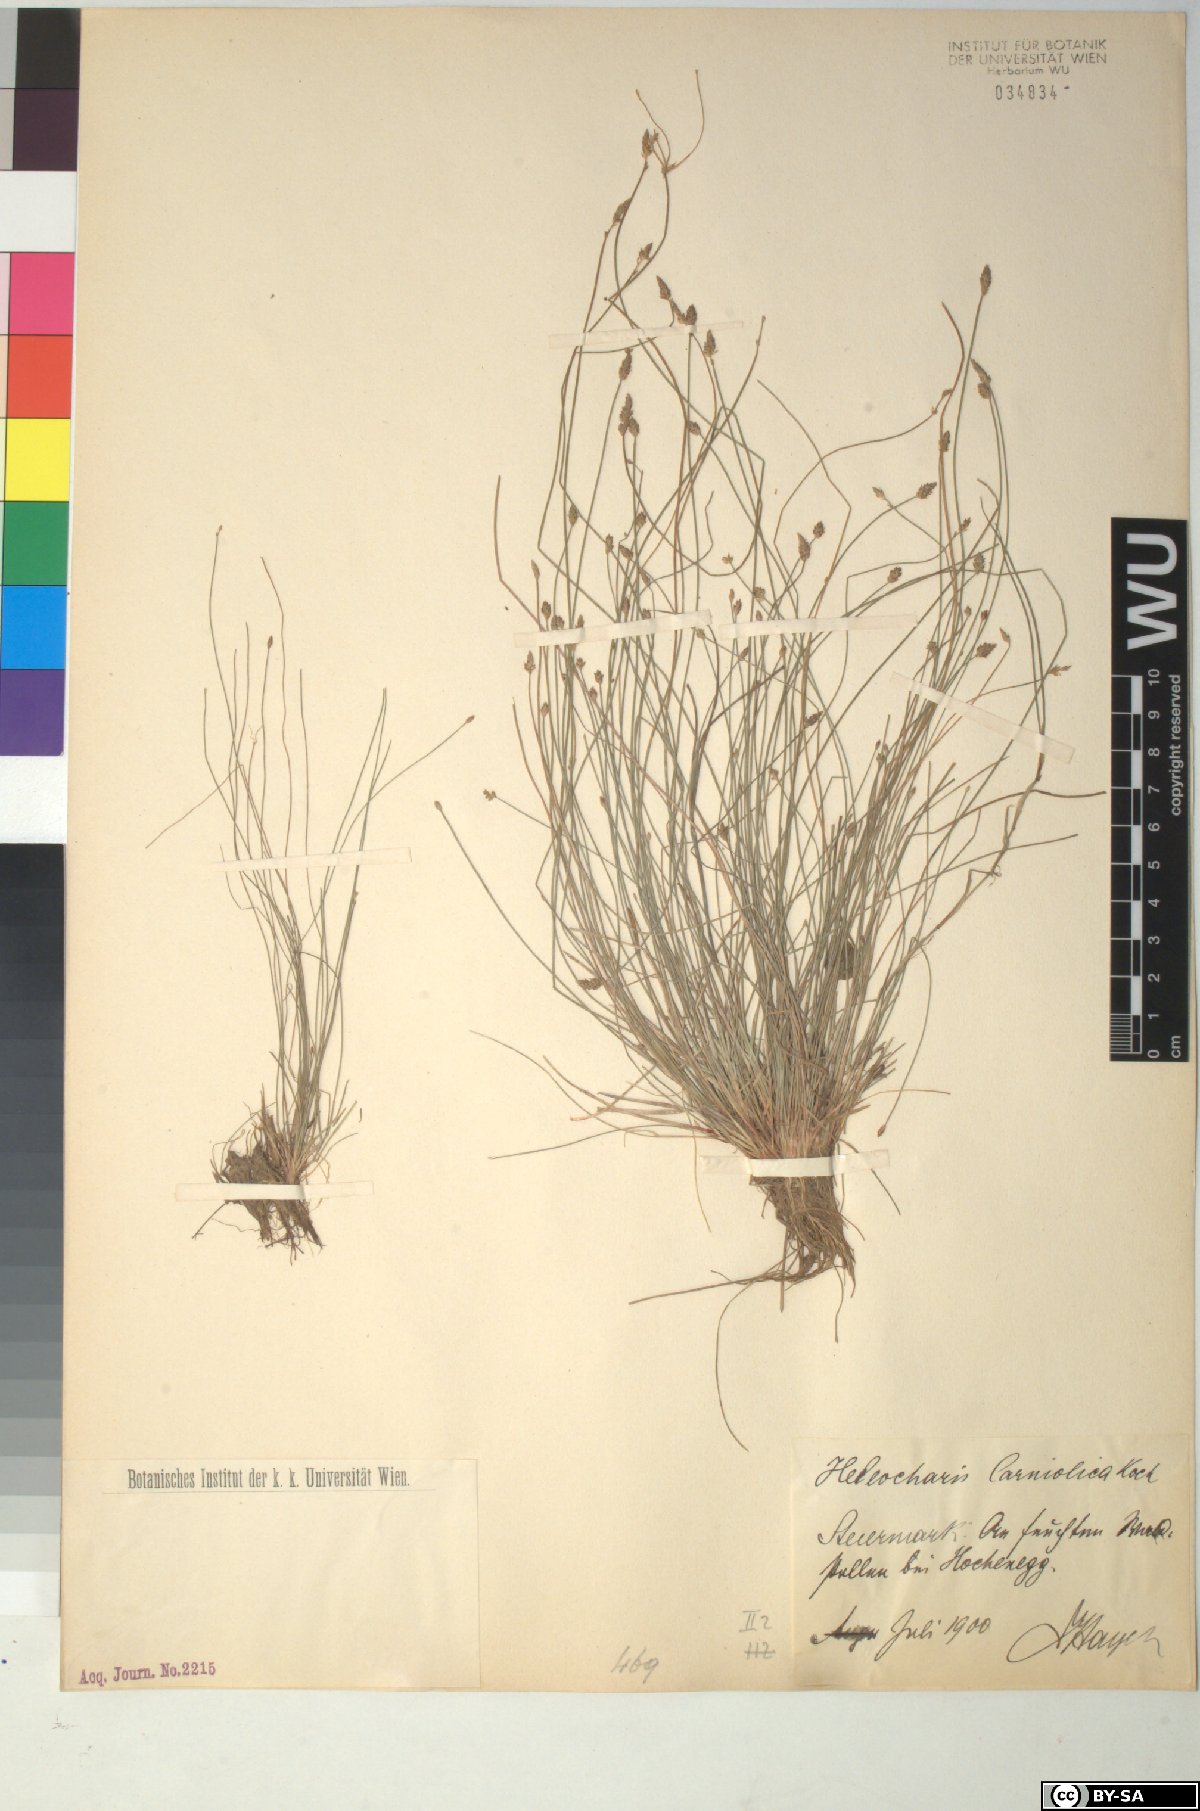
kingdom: Plantae
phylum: Tracheophyta
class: Liliopsida
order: Poales
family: Cyperaceae
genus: Eleocharis
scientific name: Eleocharis carniolica
